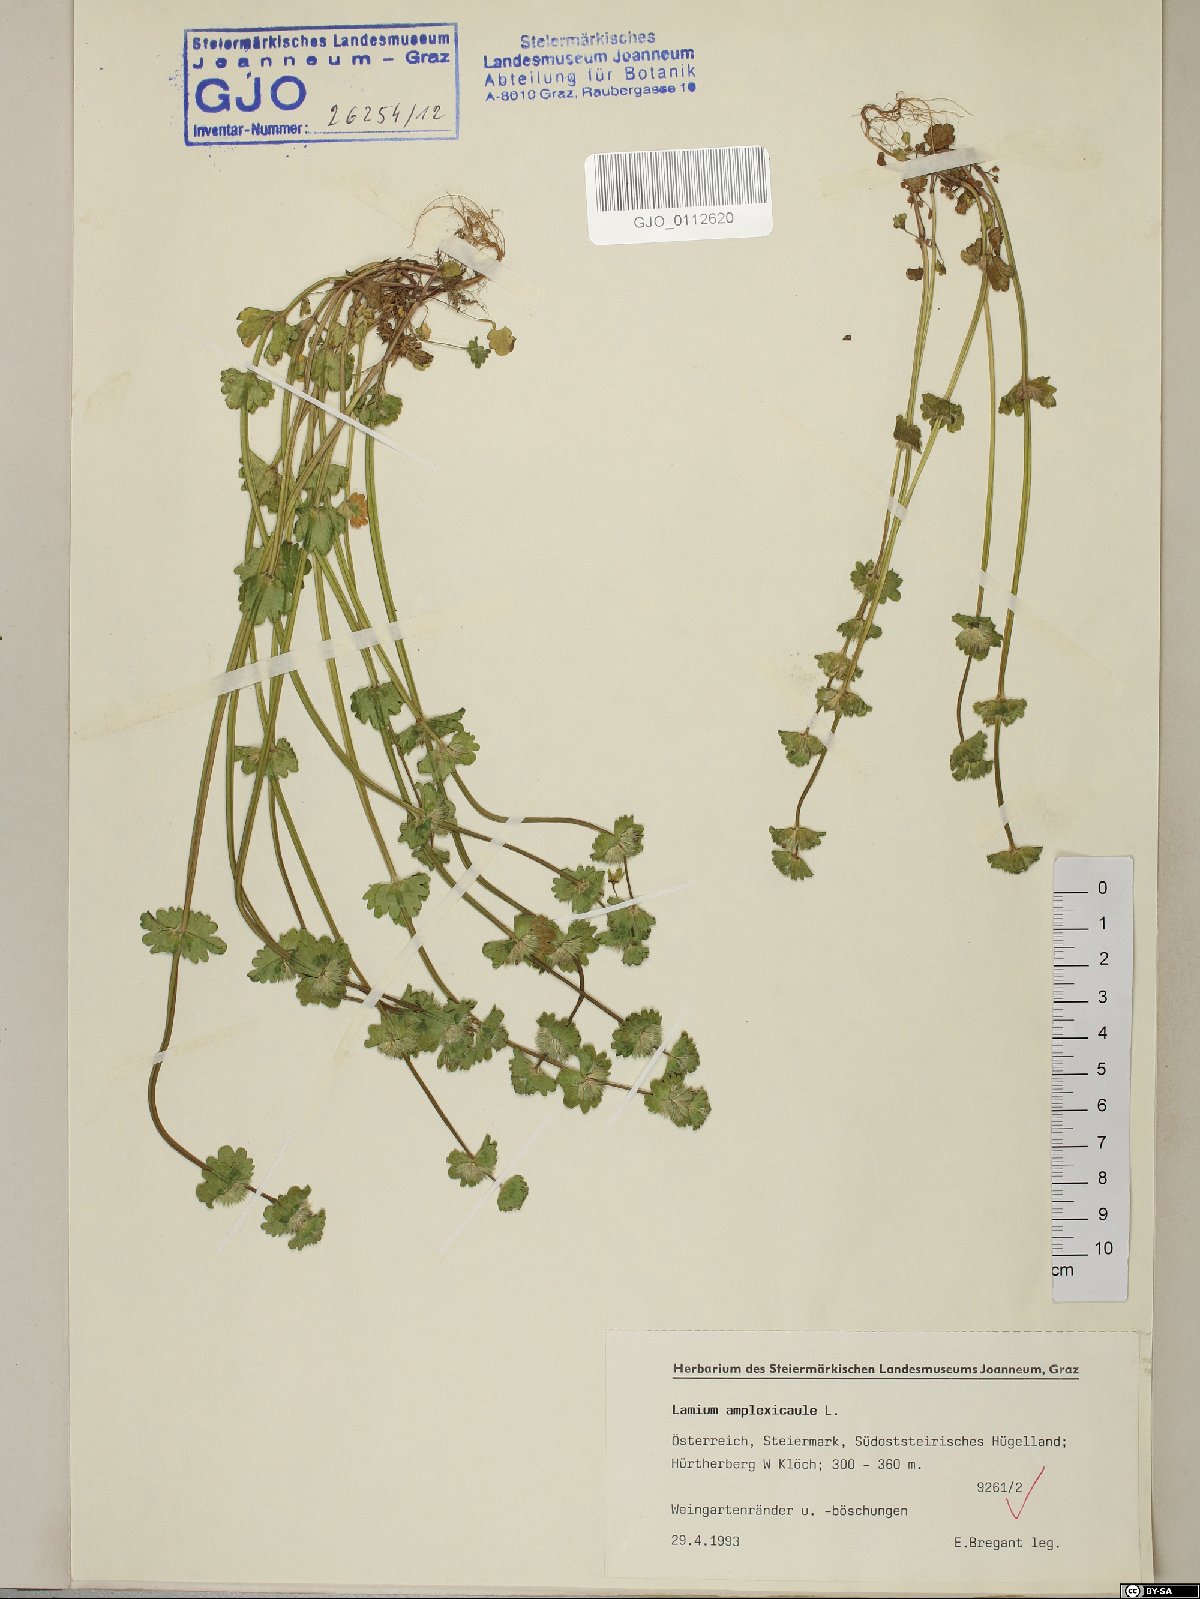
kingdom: Plantae
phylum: Tracheophyta
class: Magnoliopsida
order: Lamiales
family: Lamiaceae
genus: Lamium
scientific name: Lamium amplexicaule
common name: Henbit dead-nettle
